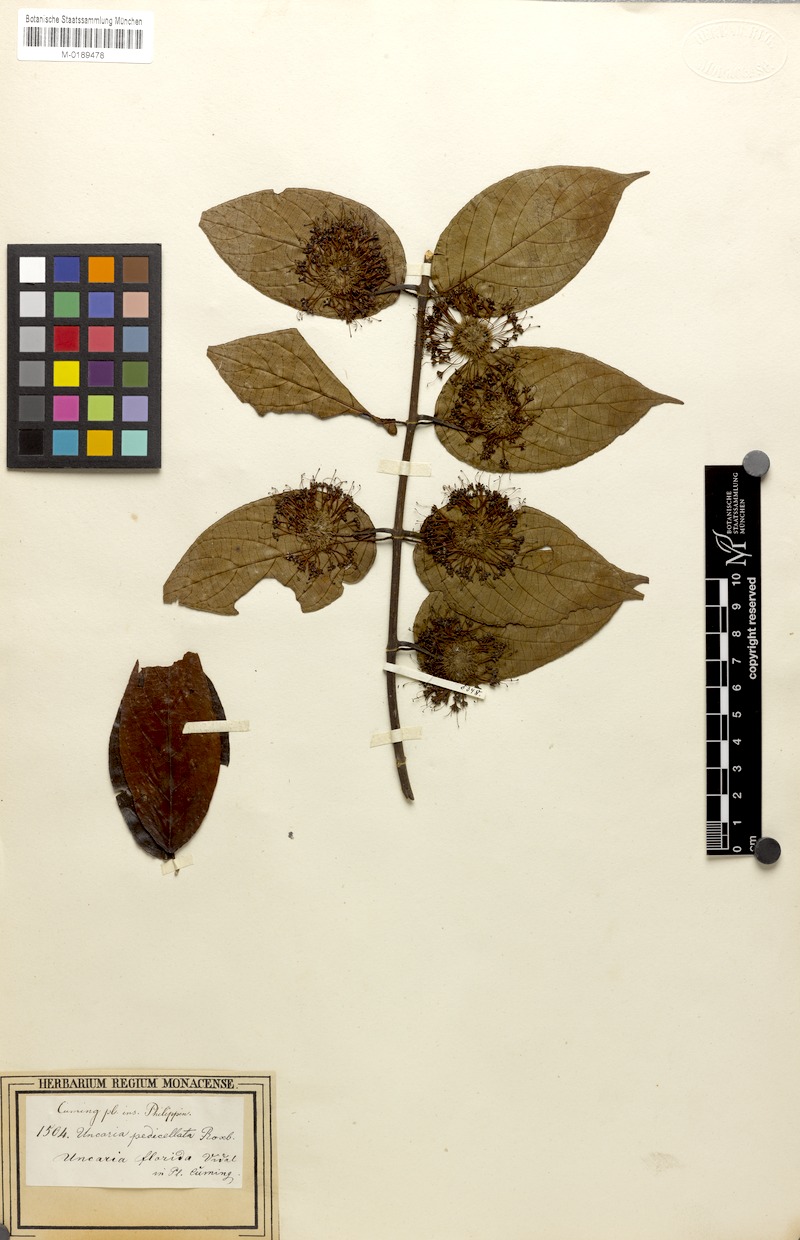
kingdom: Plantae
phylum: Tracheophyta
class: Magnoliopsida
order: Gentianales
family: Rubiaceae
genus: Uncaria
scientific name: Uncaria lanosa
